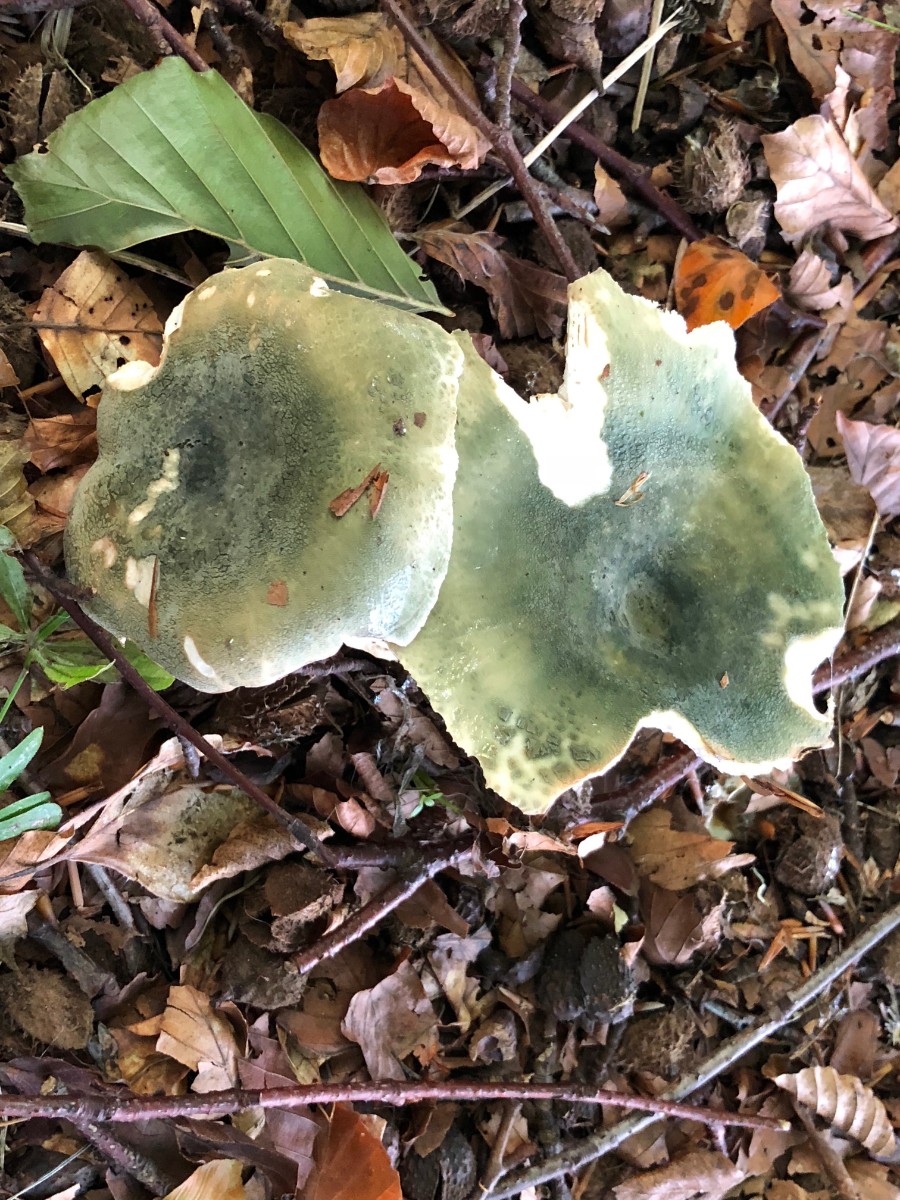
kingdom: Fungi
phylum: Basidiomycota
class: Agaricomycetes
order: Russulales
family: Russulaceae
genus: Russula
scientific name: Russula virescens
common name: spanskgrøn skørhat
